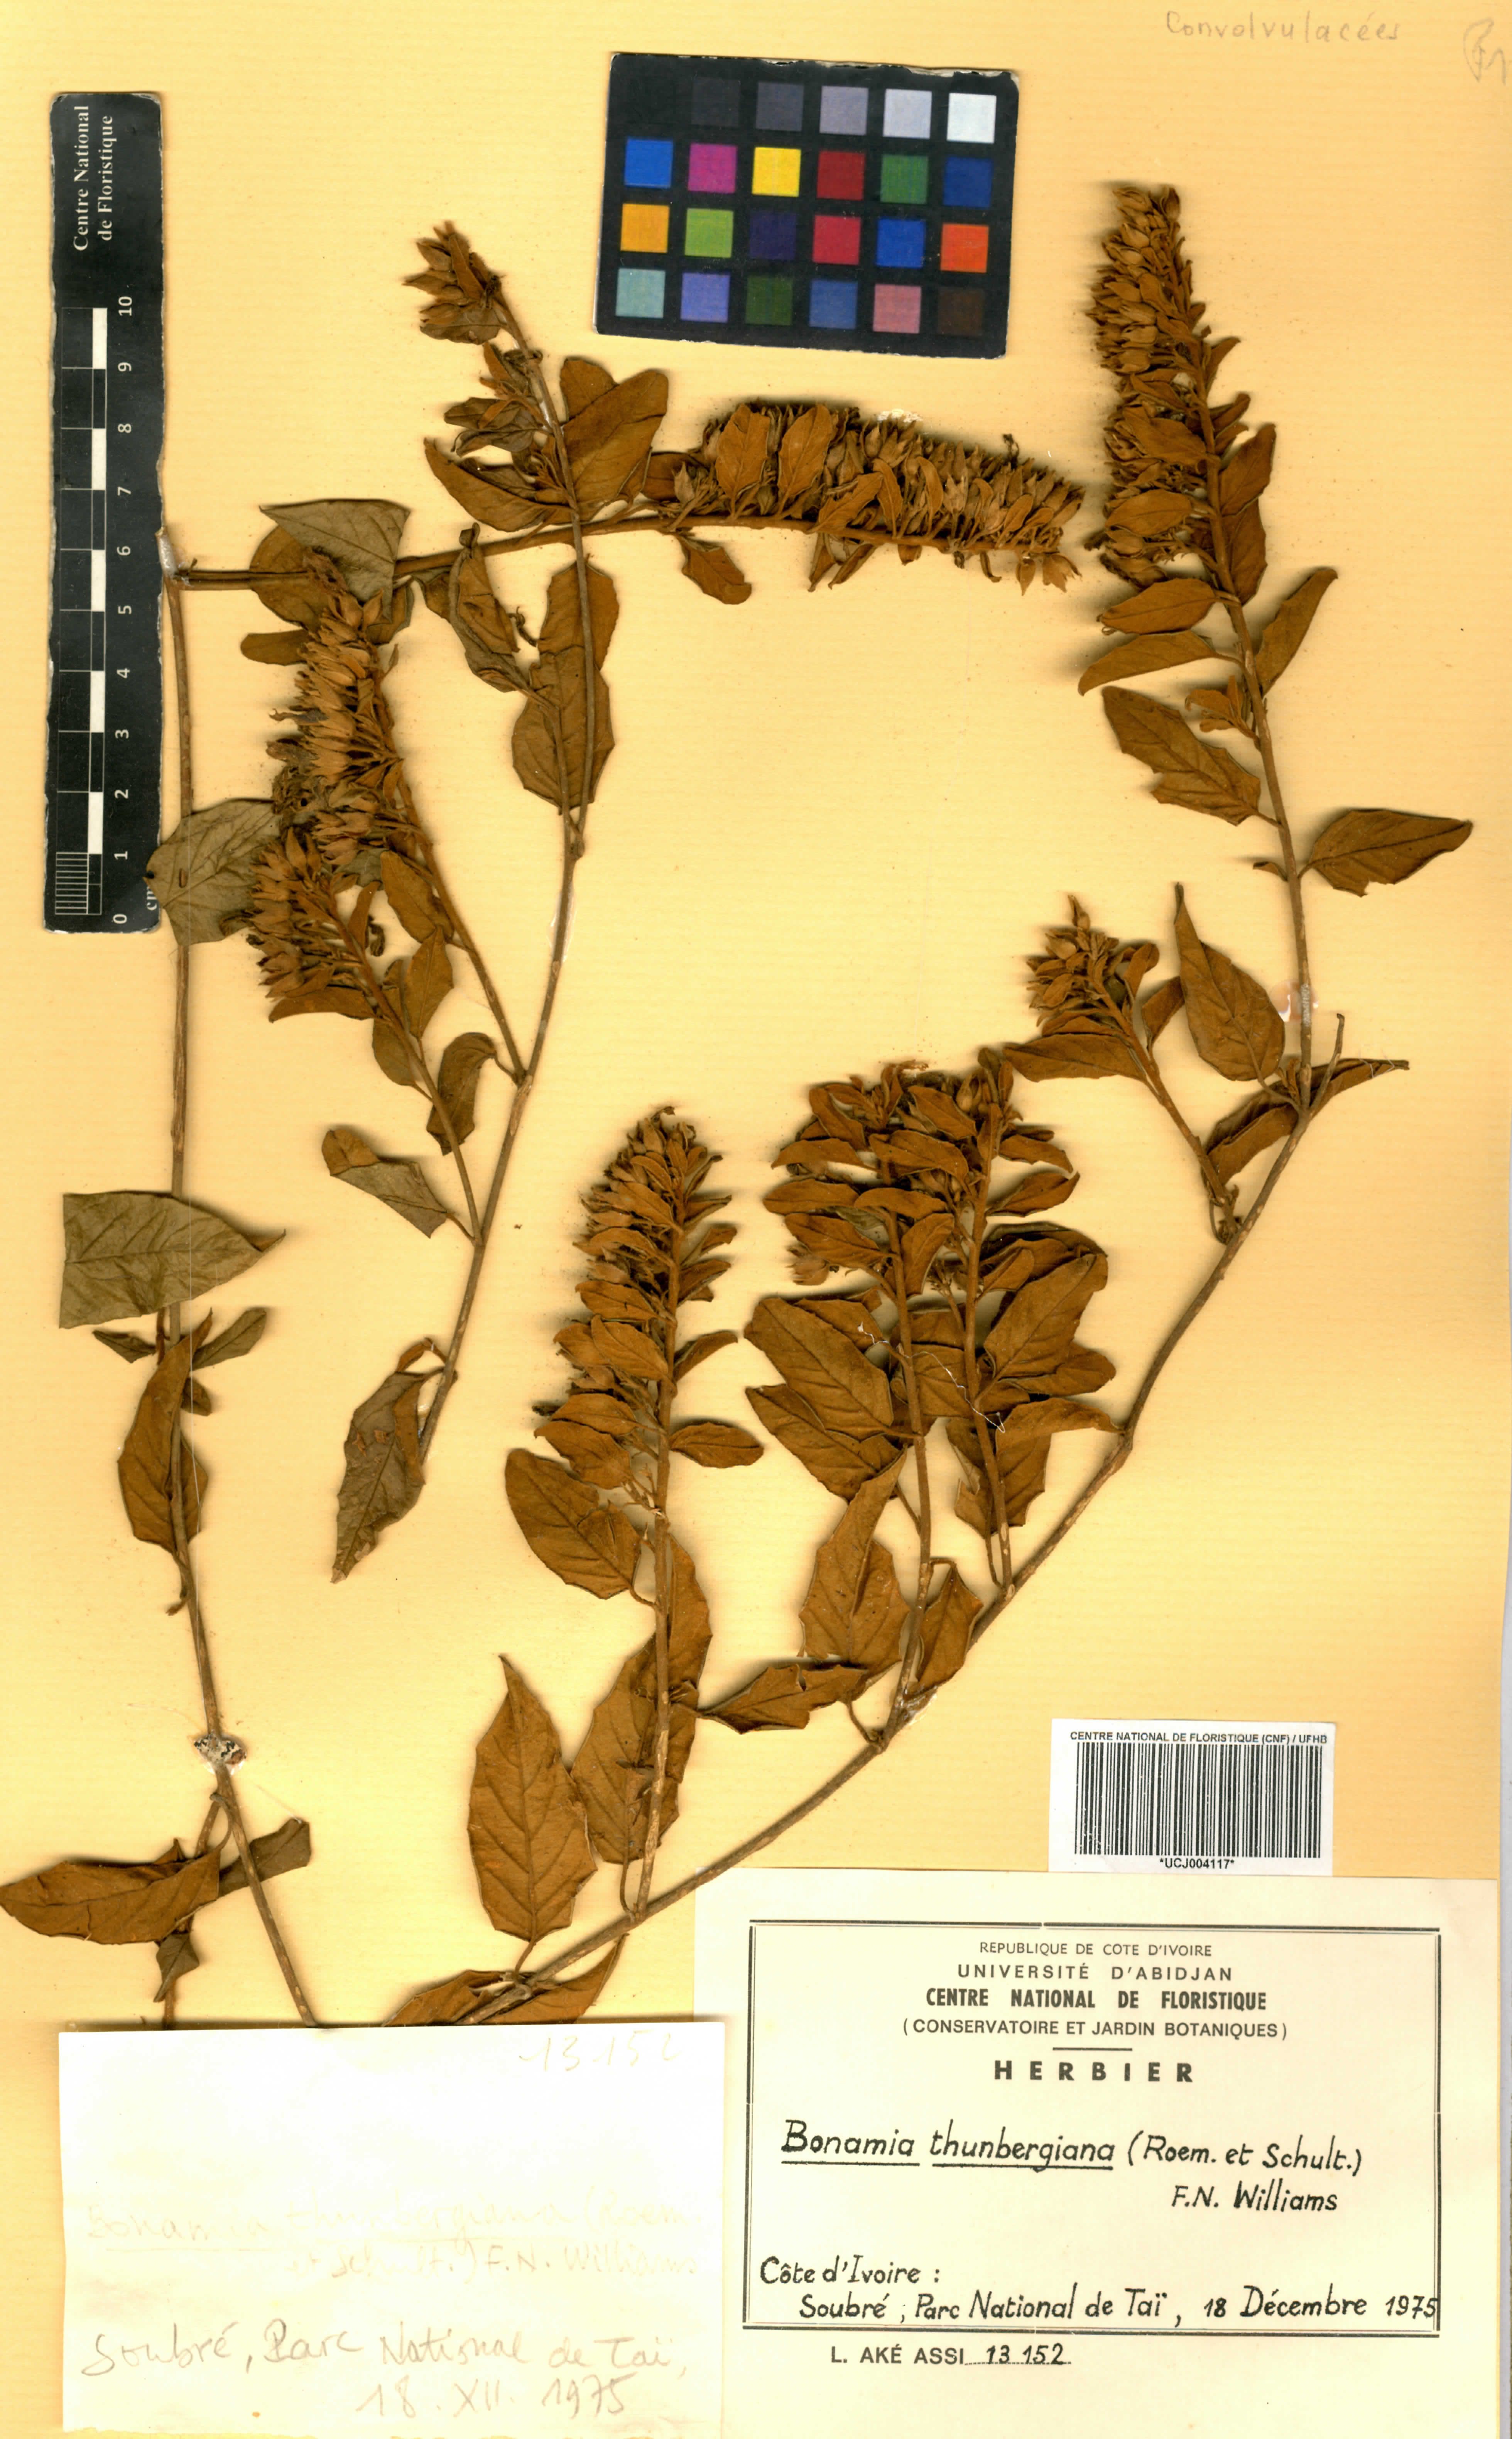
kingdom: Plantae
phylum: Tracheophyta
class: Magnoliopsida
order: Solanales
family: Convolvulaceae
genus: Bonamia
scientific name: Bonamia thunbergiana
